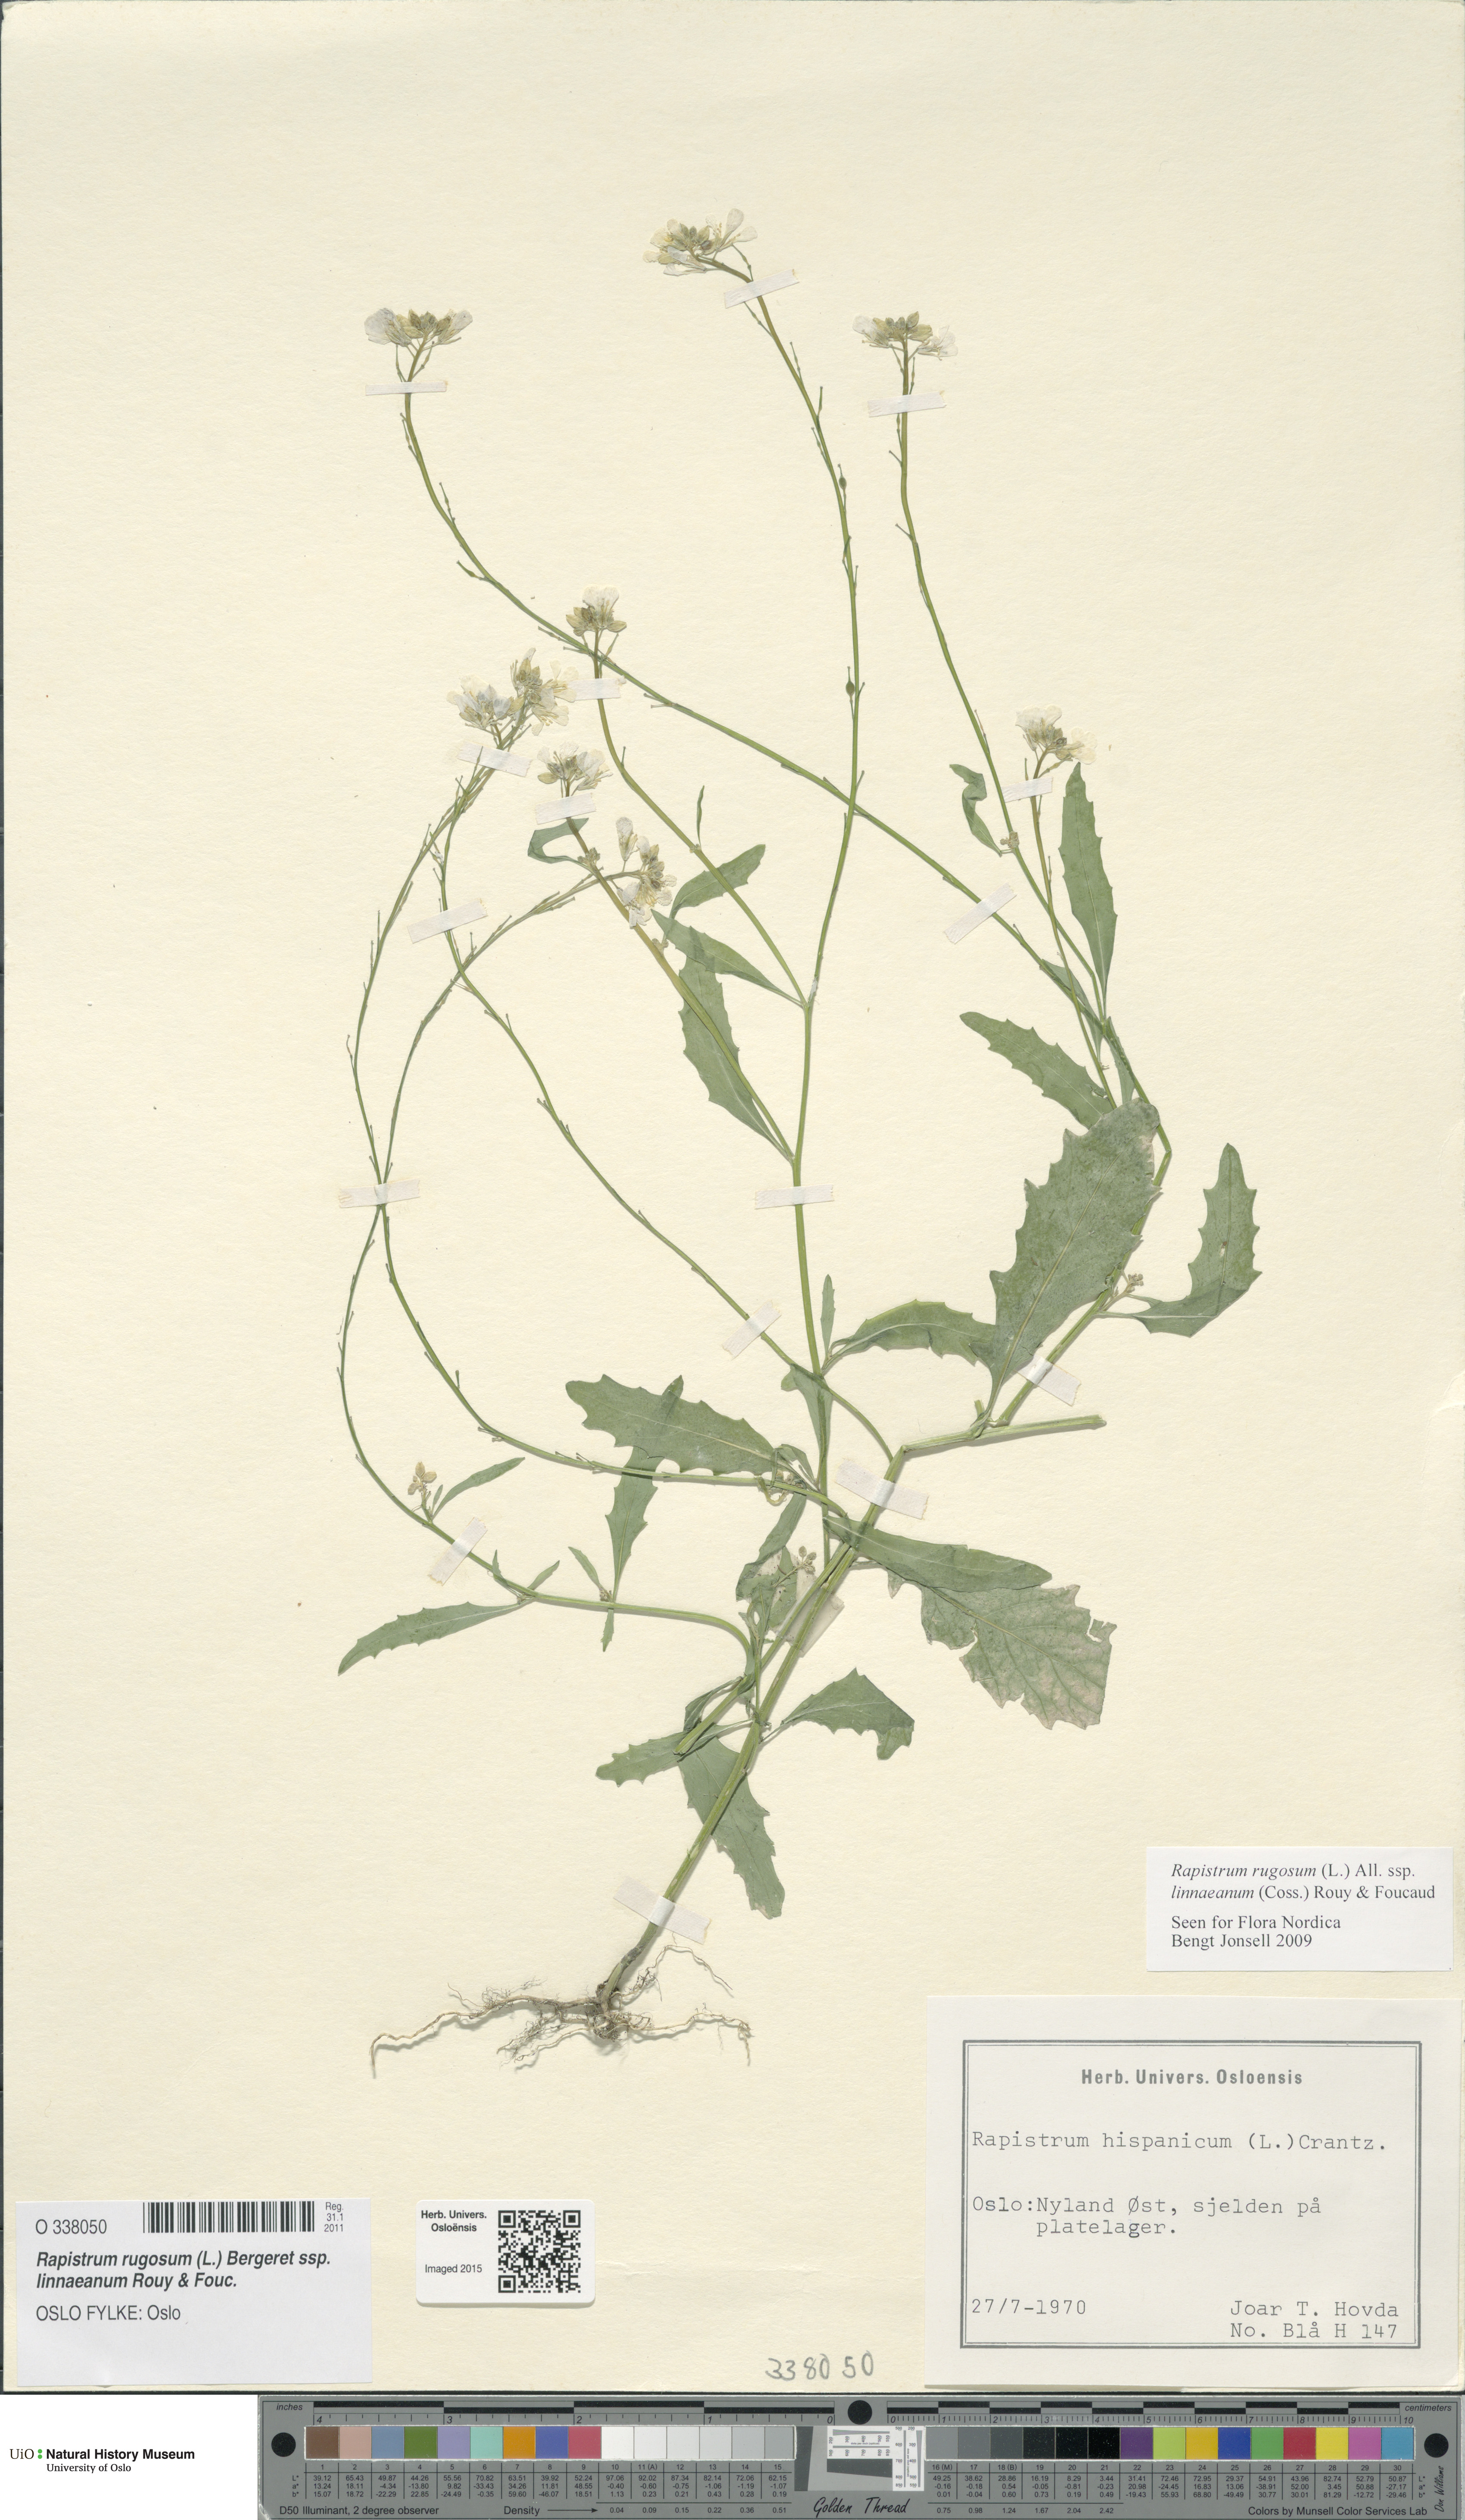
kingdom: Plantae
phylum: Tracheophyta
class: Magnoliopsida
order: Brassicales
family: Brassicaceae
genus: Rapistrum
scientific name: Rapistrum rugosum
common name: Annual bastardcabbage
